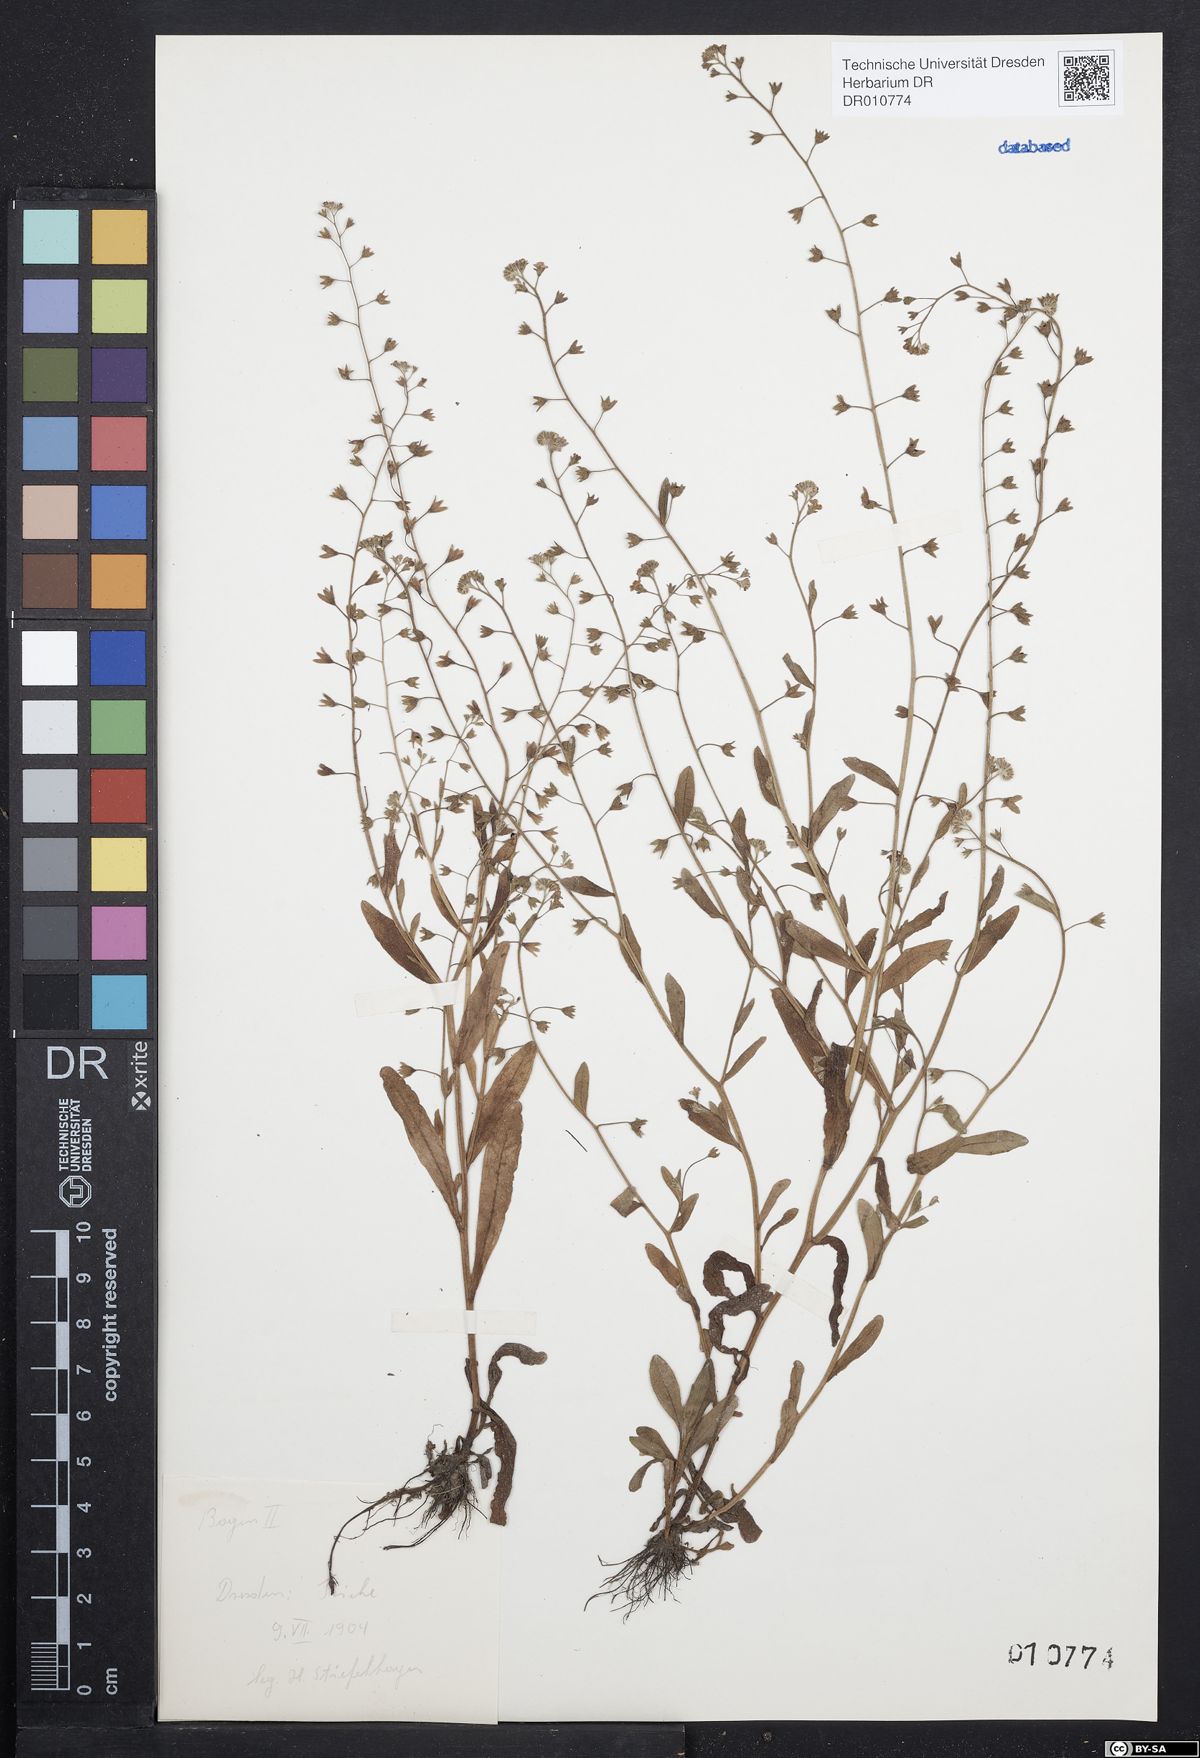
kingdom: Plantae
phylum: Tracheophyta
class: Magnoliopsida
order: Boraginales
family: Boraginaceae
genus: Myosotis
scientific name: Myosotis laxa
